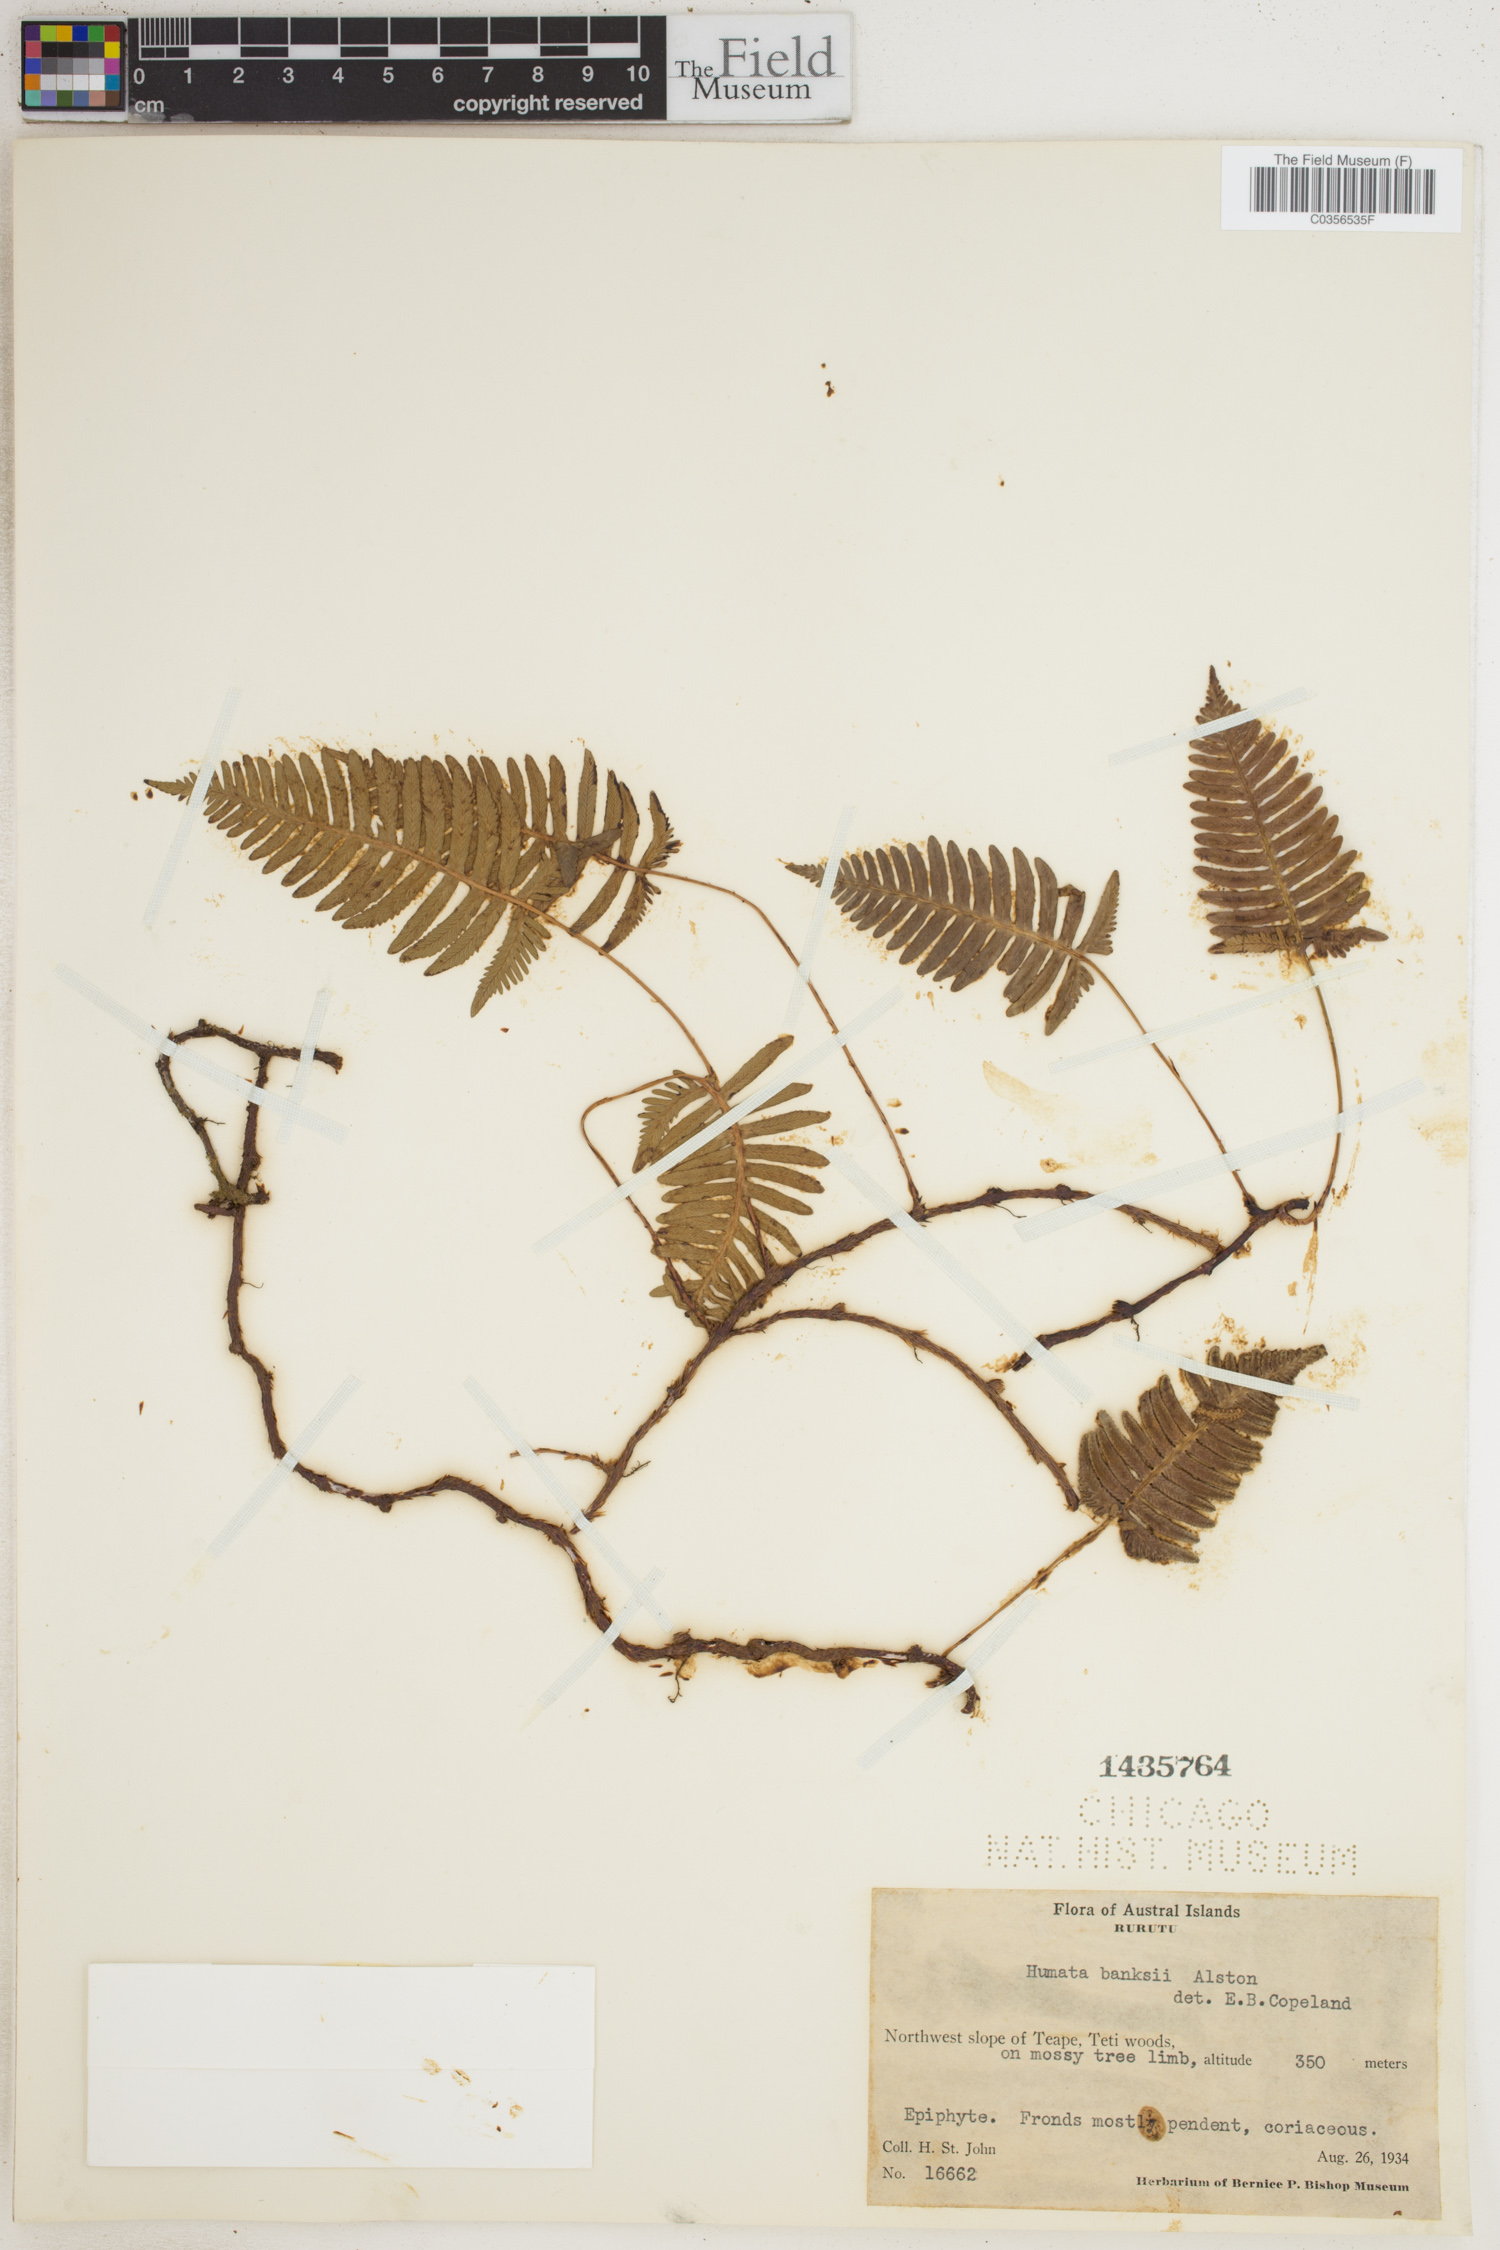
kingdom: Plantae
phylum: Tracheophyta
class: Polypodiopsida
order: Polypodiales
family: Davalliaceae
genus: Davallia
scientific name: Davallia pectinata
